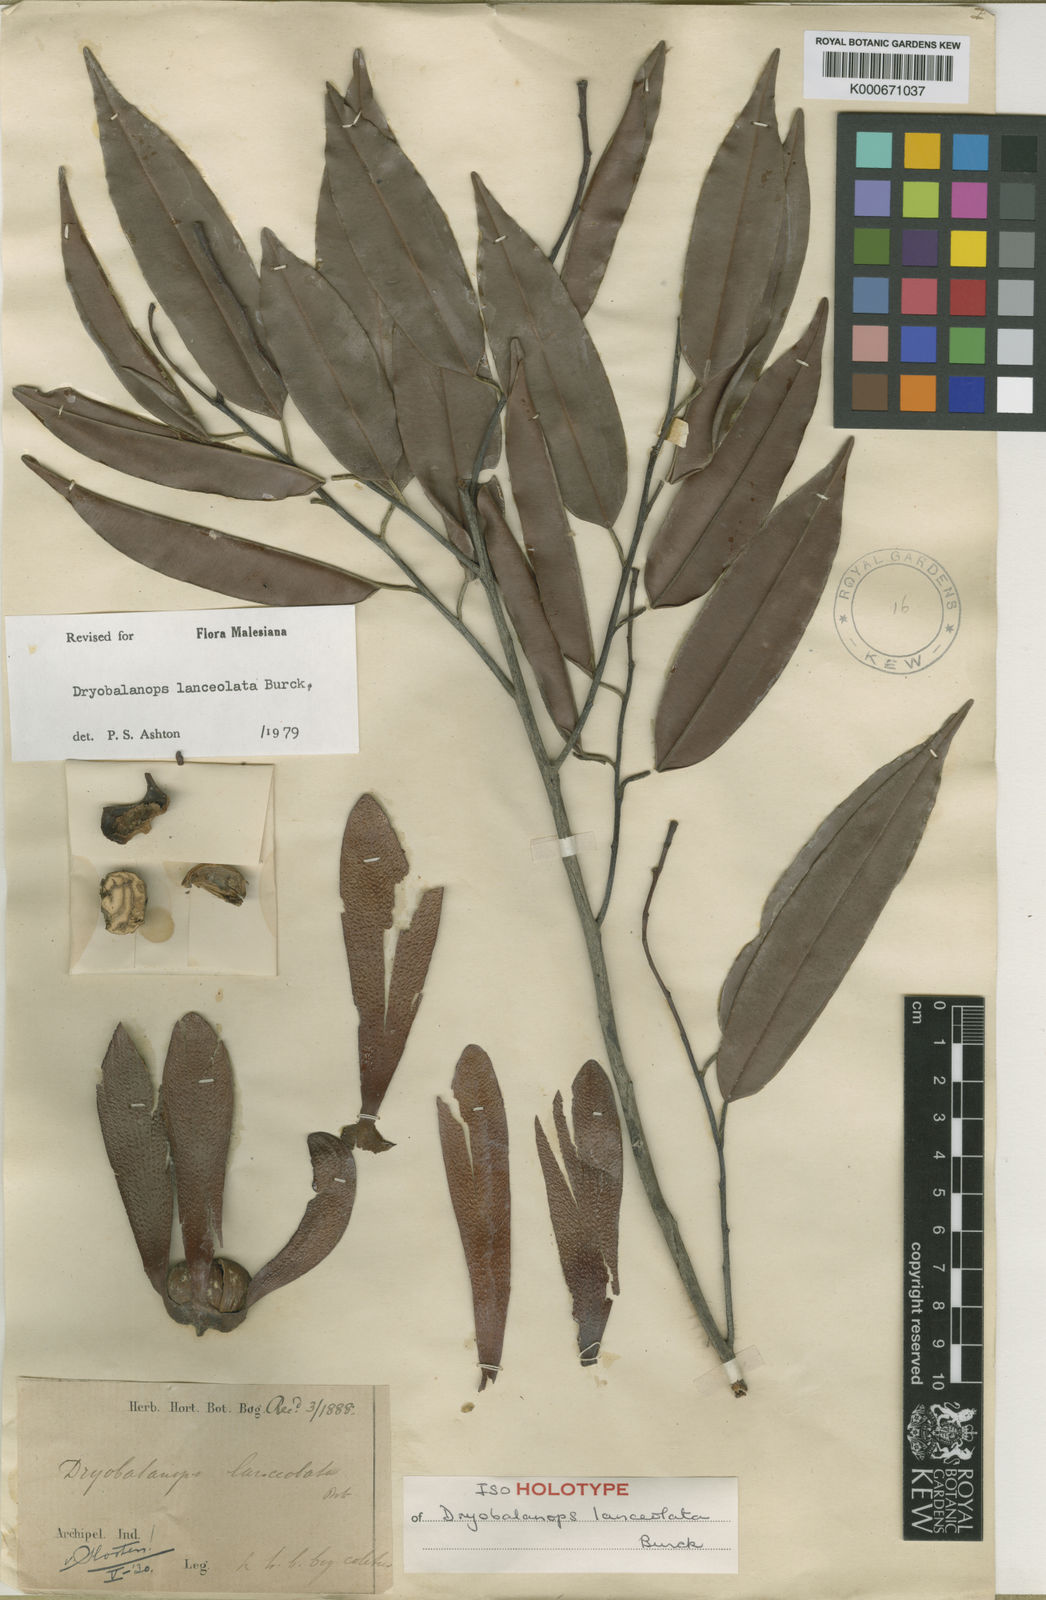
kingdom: Plantae
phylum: Tracheophyta
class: Magnoliopsida
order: Malvales
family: Dipterocarpaceae
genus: Dryobalanops
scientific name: Dryobalanops lanceolata
